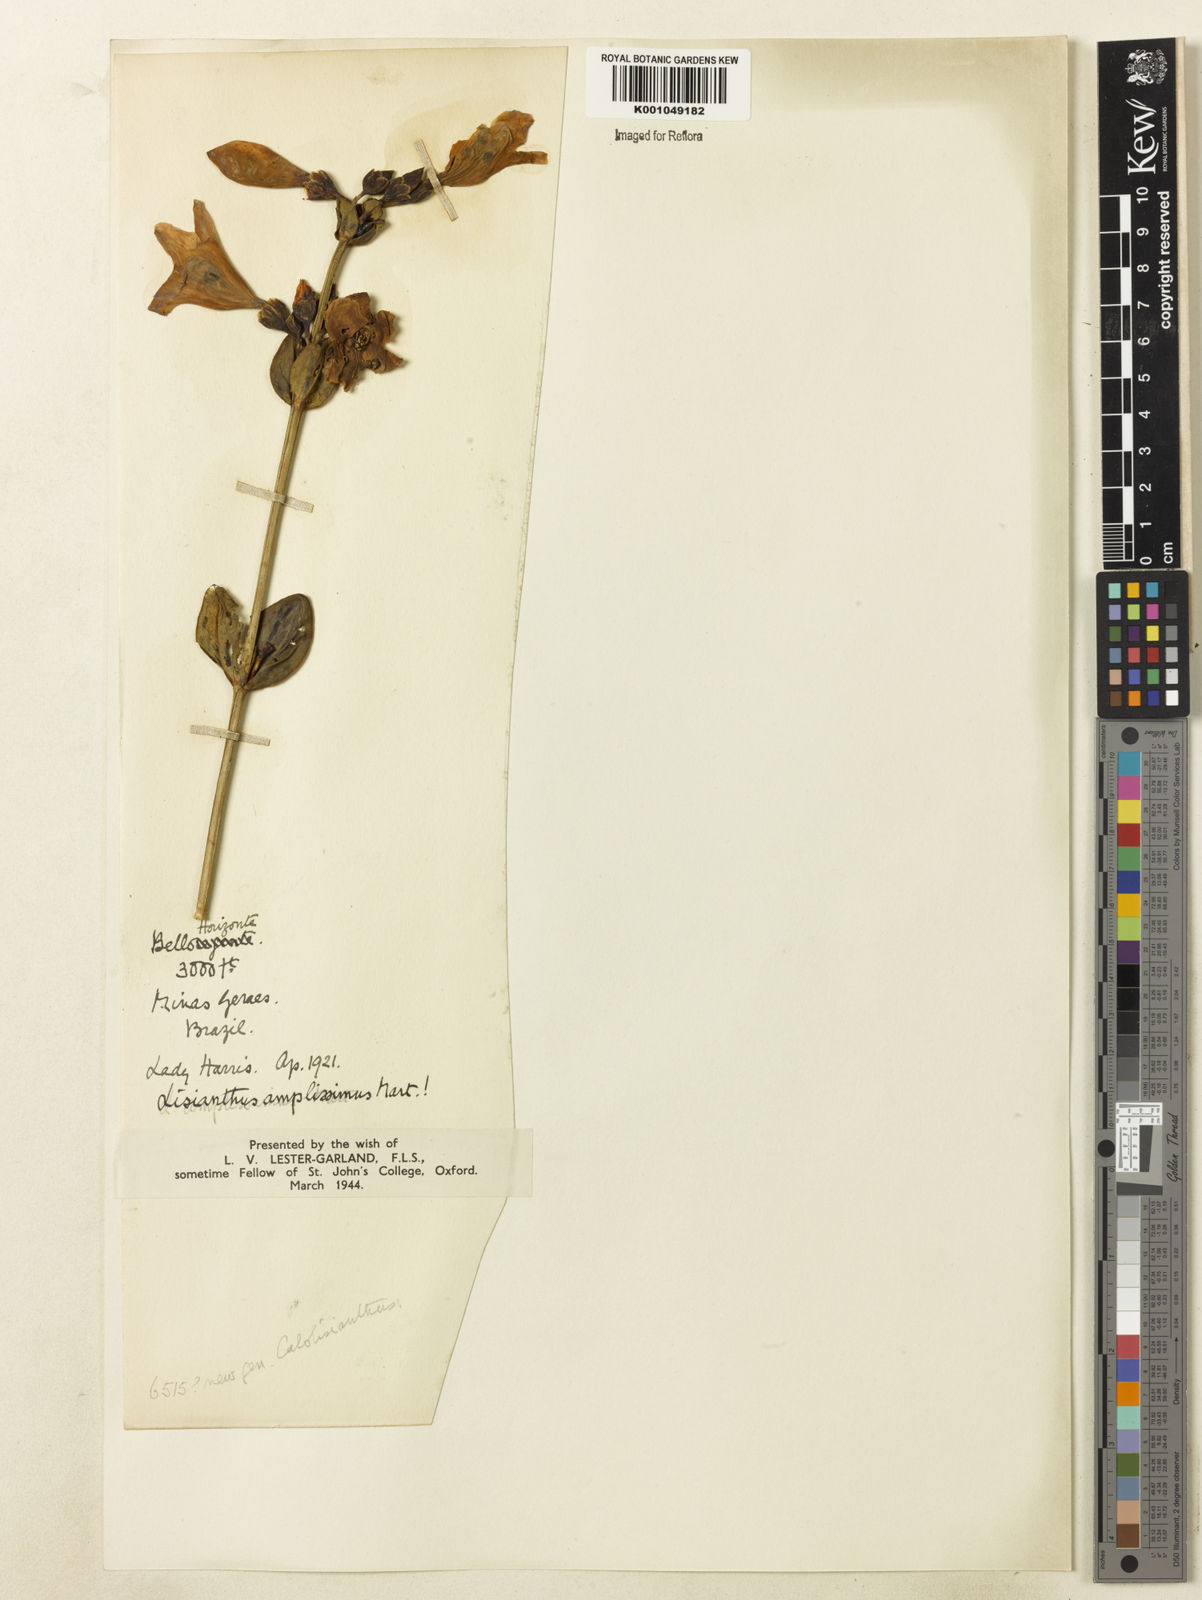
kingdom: Plantae
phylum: Tracheophyta
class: Magnoliopsida
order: Gentianales
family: Gentianaceae
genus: Calolisianthus
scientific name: Calolisianthus amplissimus
